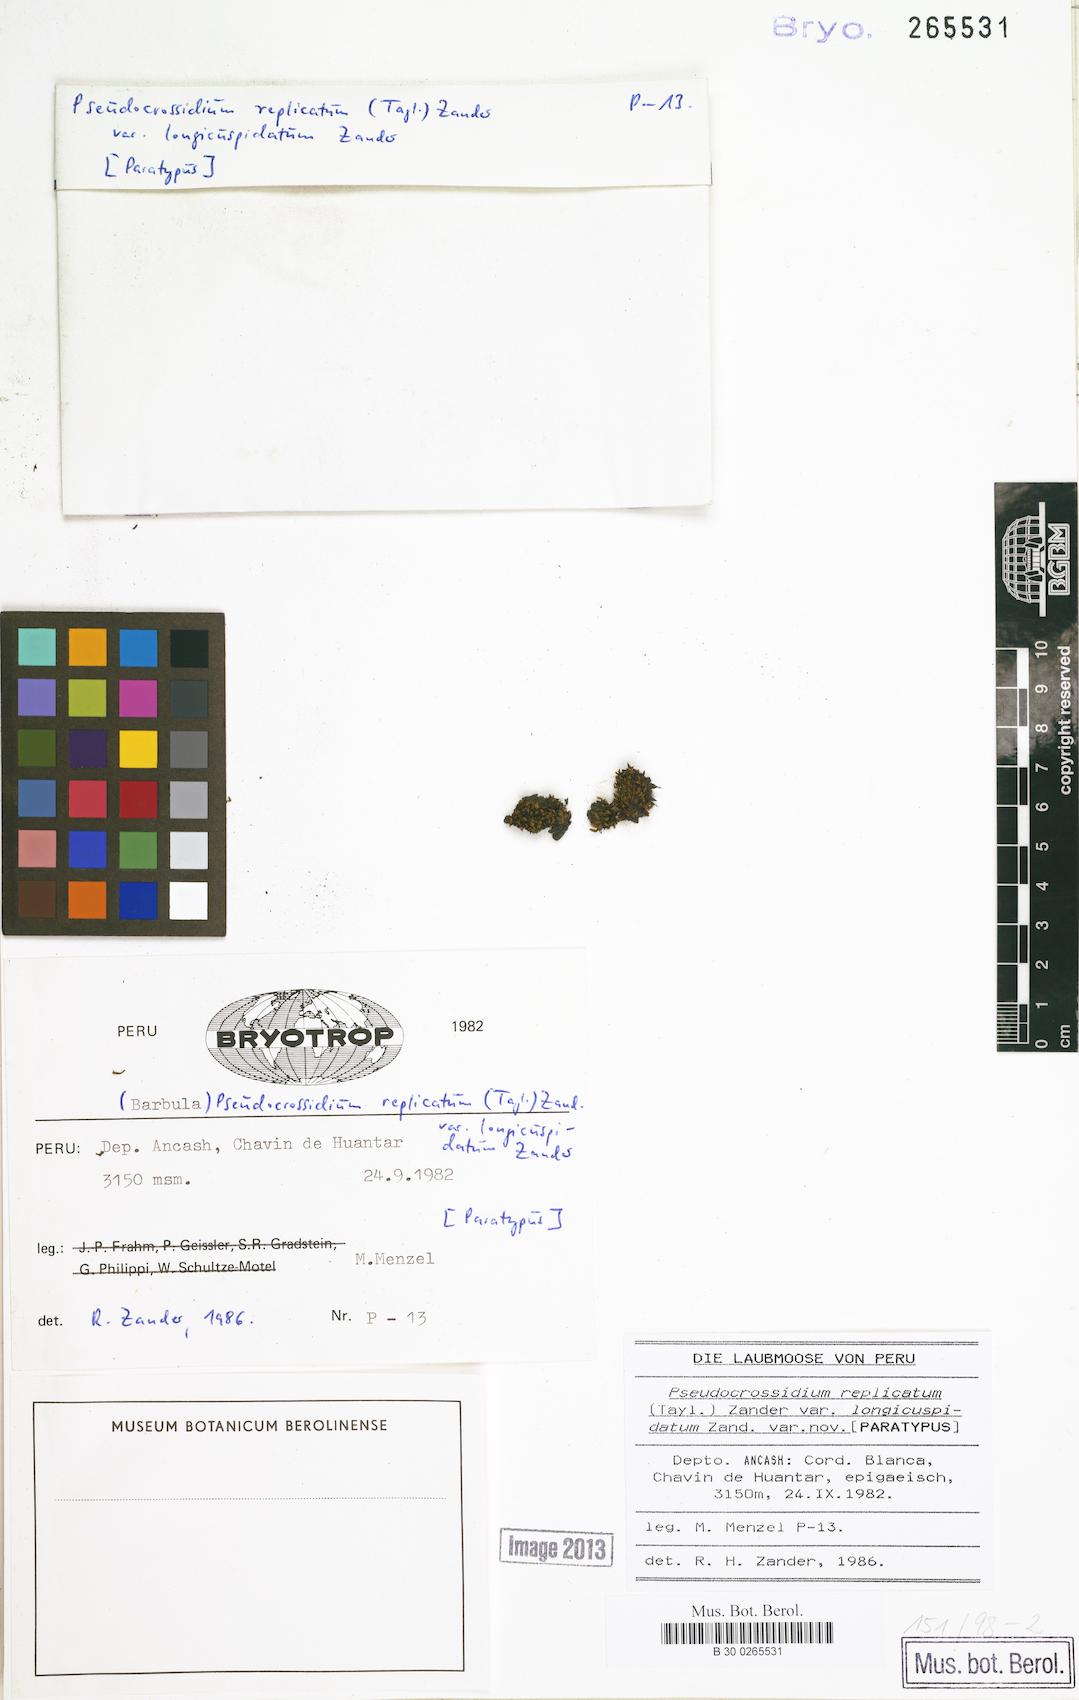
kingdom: Plantae
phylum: Bryophyta
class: Bryopsida
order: Pottiales
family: Pottiaceae
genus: Pseudocrossidium
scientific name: Pseudocrossidium replicatum
